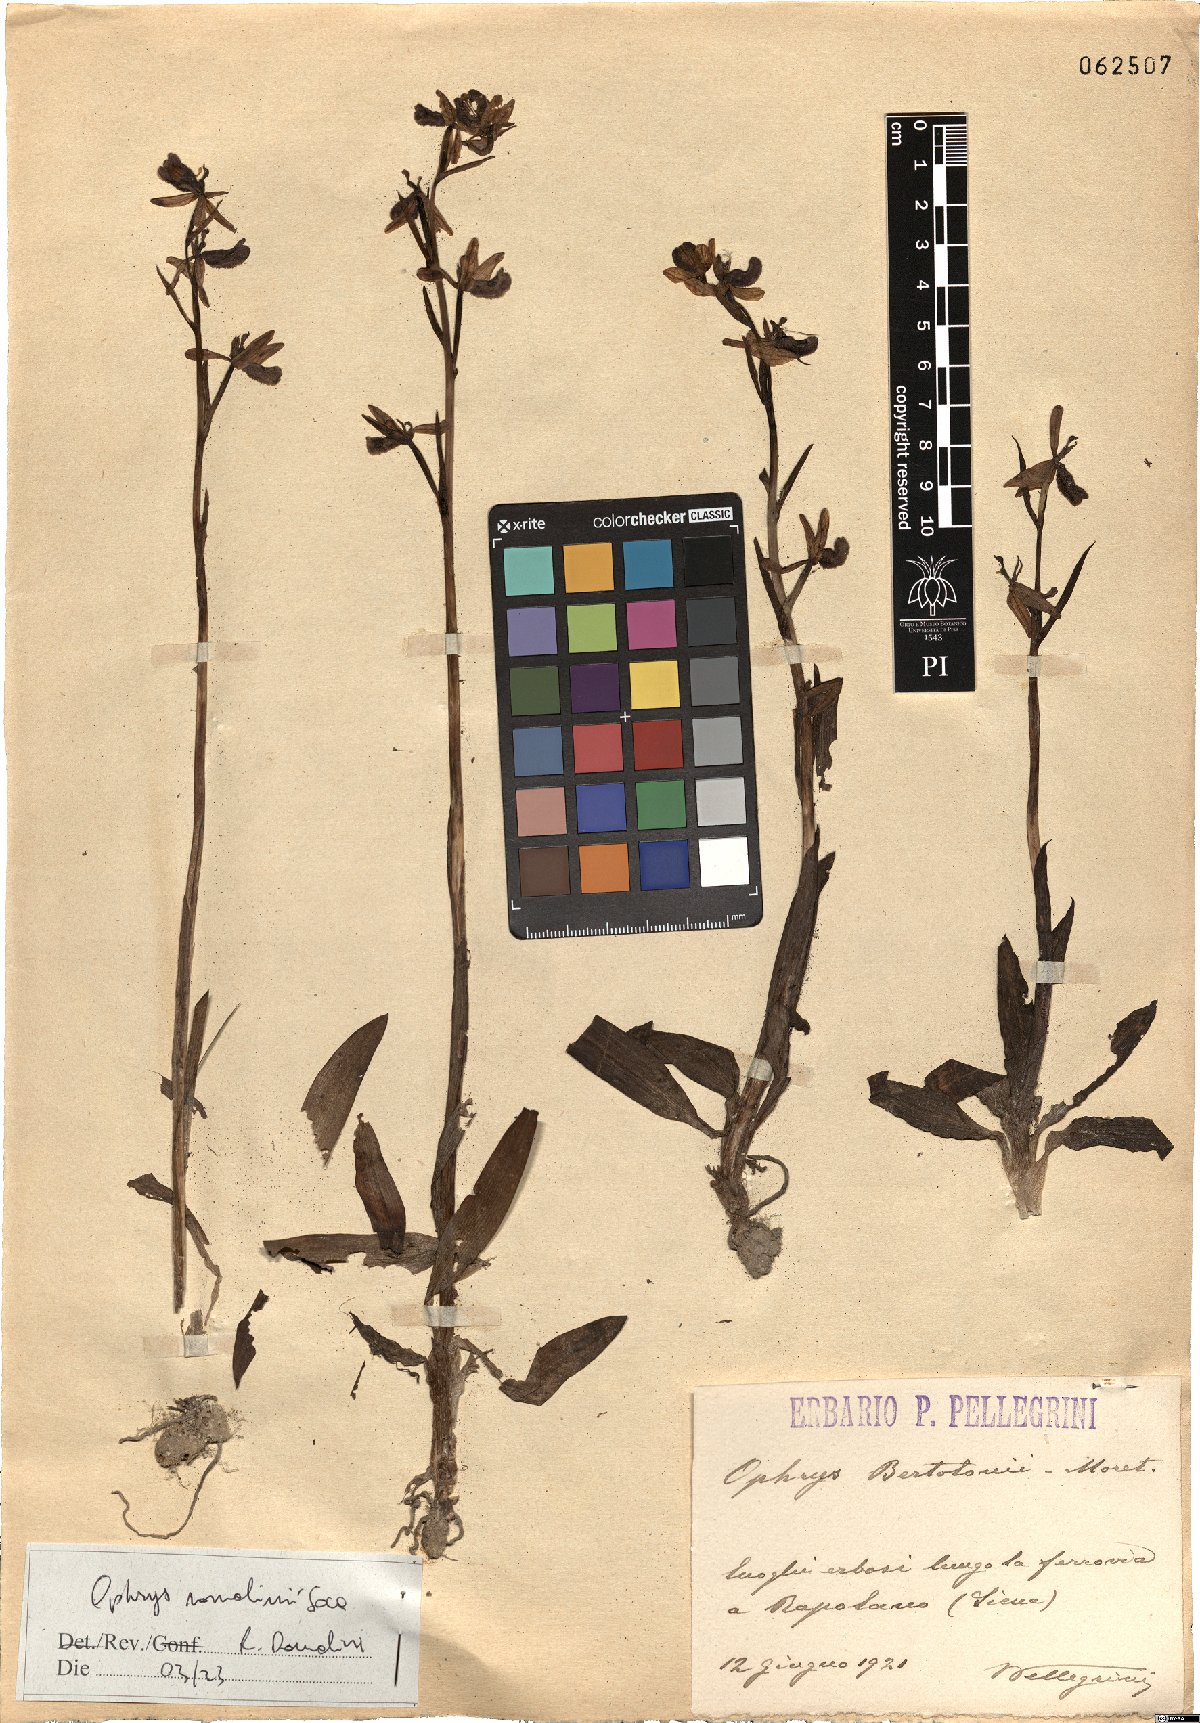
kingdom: Plantae
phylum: Tracheophyta
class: Liliopsida
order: Asparagales
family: Orchidaceae
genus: Ophrys
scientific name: Ophrys bertolonii
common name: Bertoloni's bee orchid
